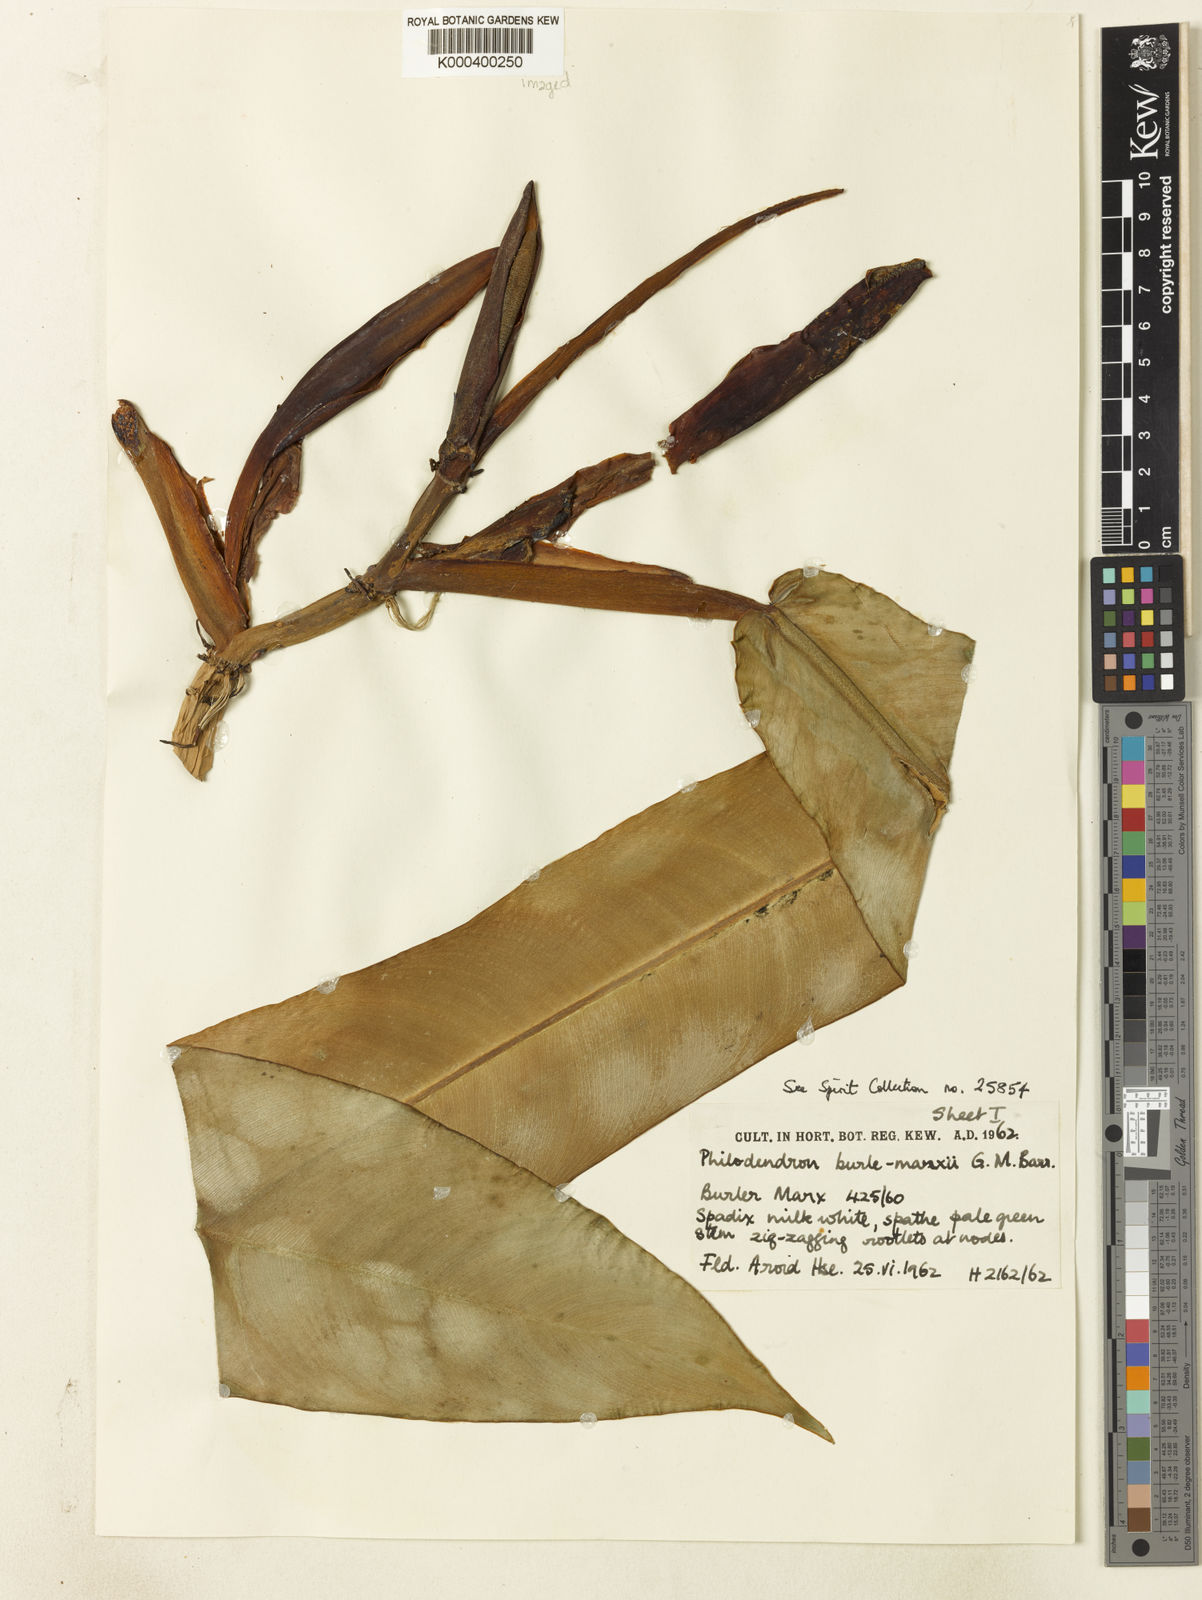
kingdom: Plantae
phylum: Tracheophyta
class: Liliopsida
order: Alismatales
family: Araceae
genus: Philodendron
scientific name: Philodendron burle-marxii
